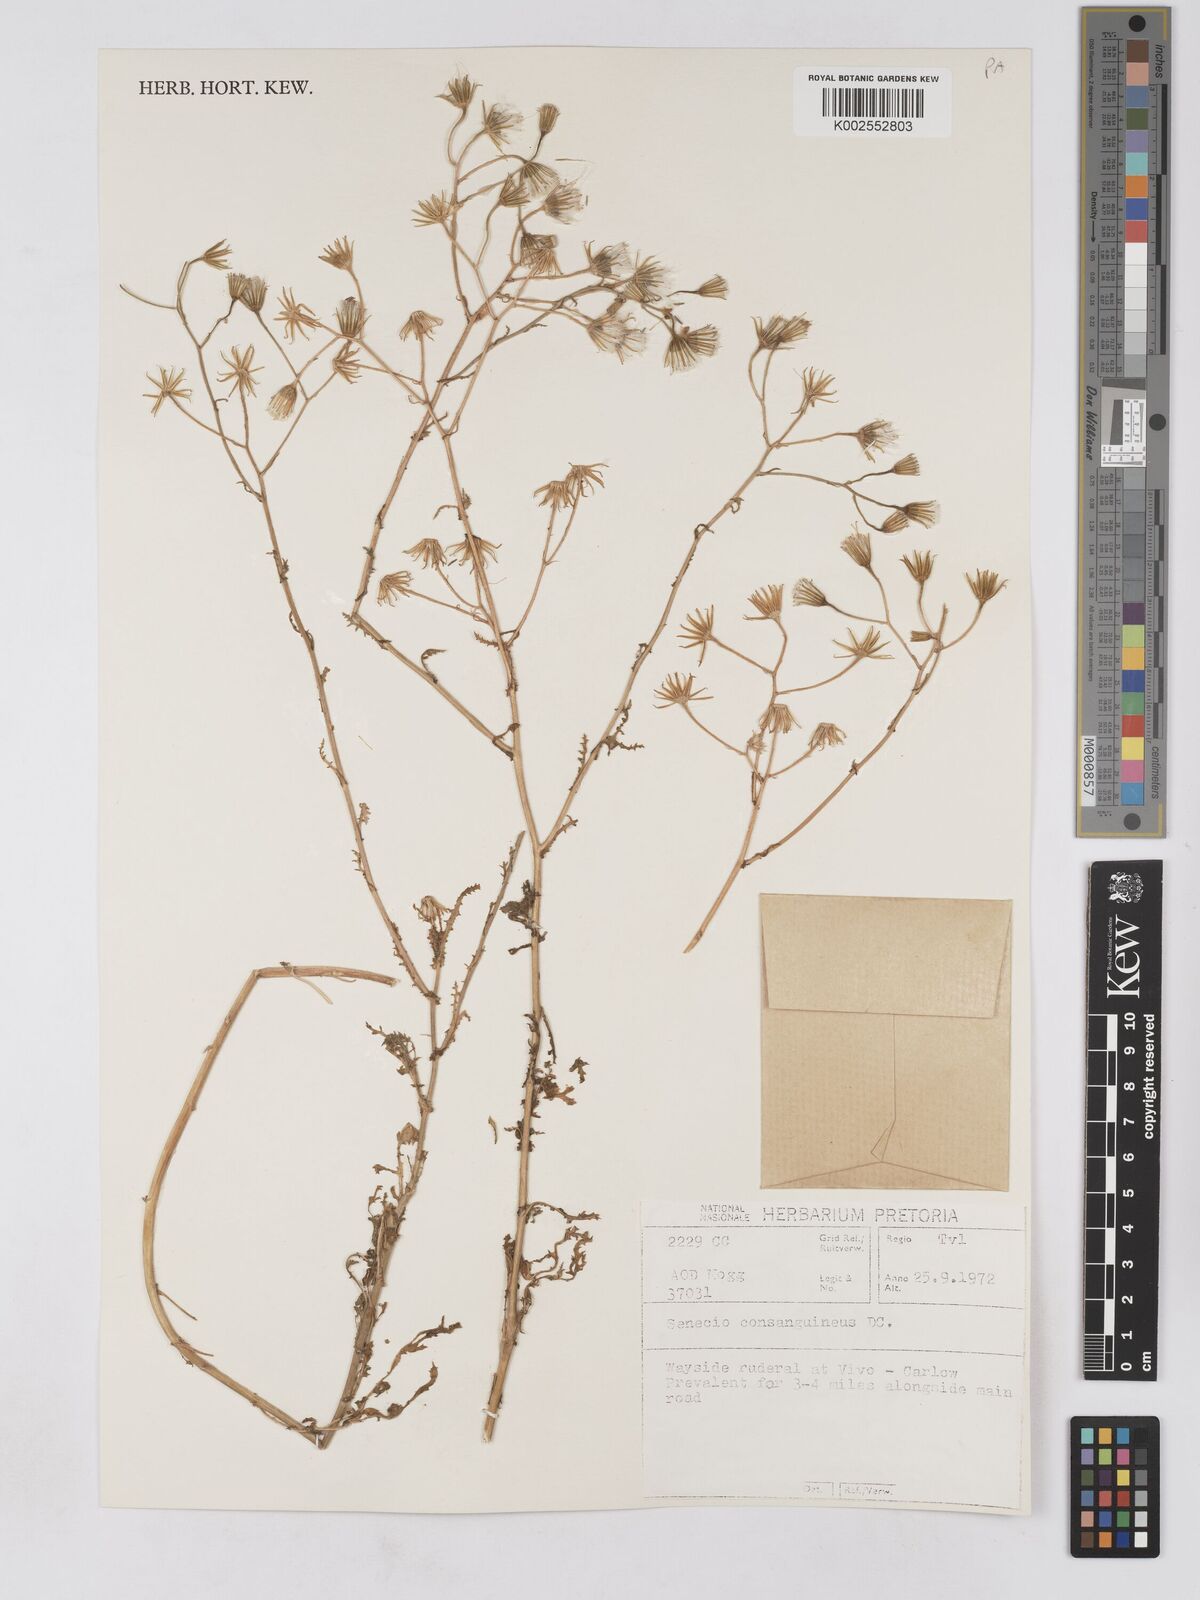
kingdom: Plantae
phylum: Tracheophyta
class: Magnoliopsida
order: Asterales
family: Asteraceae
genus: Senecio
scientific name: Senecio consanguineus
